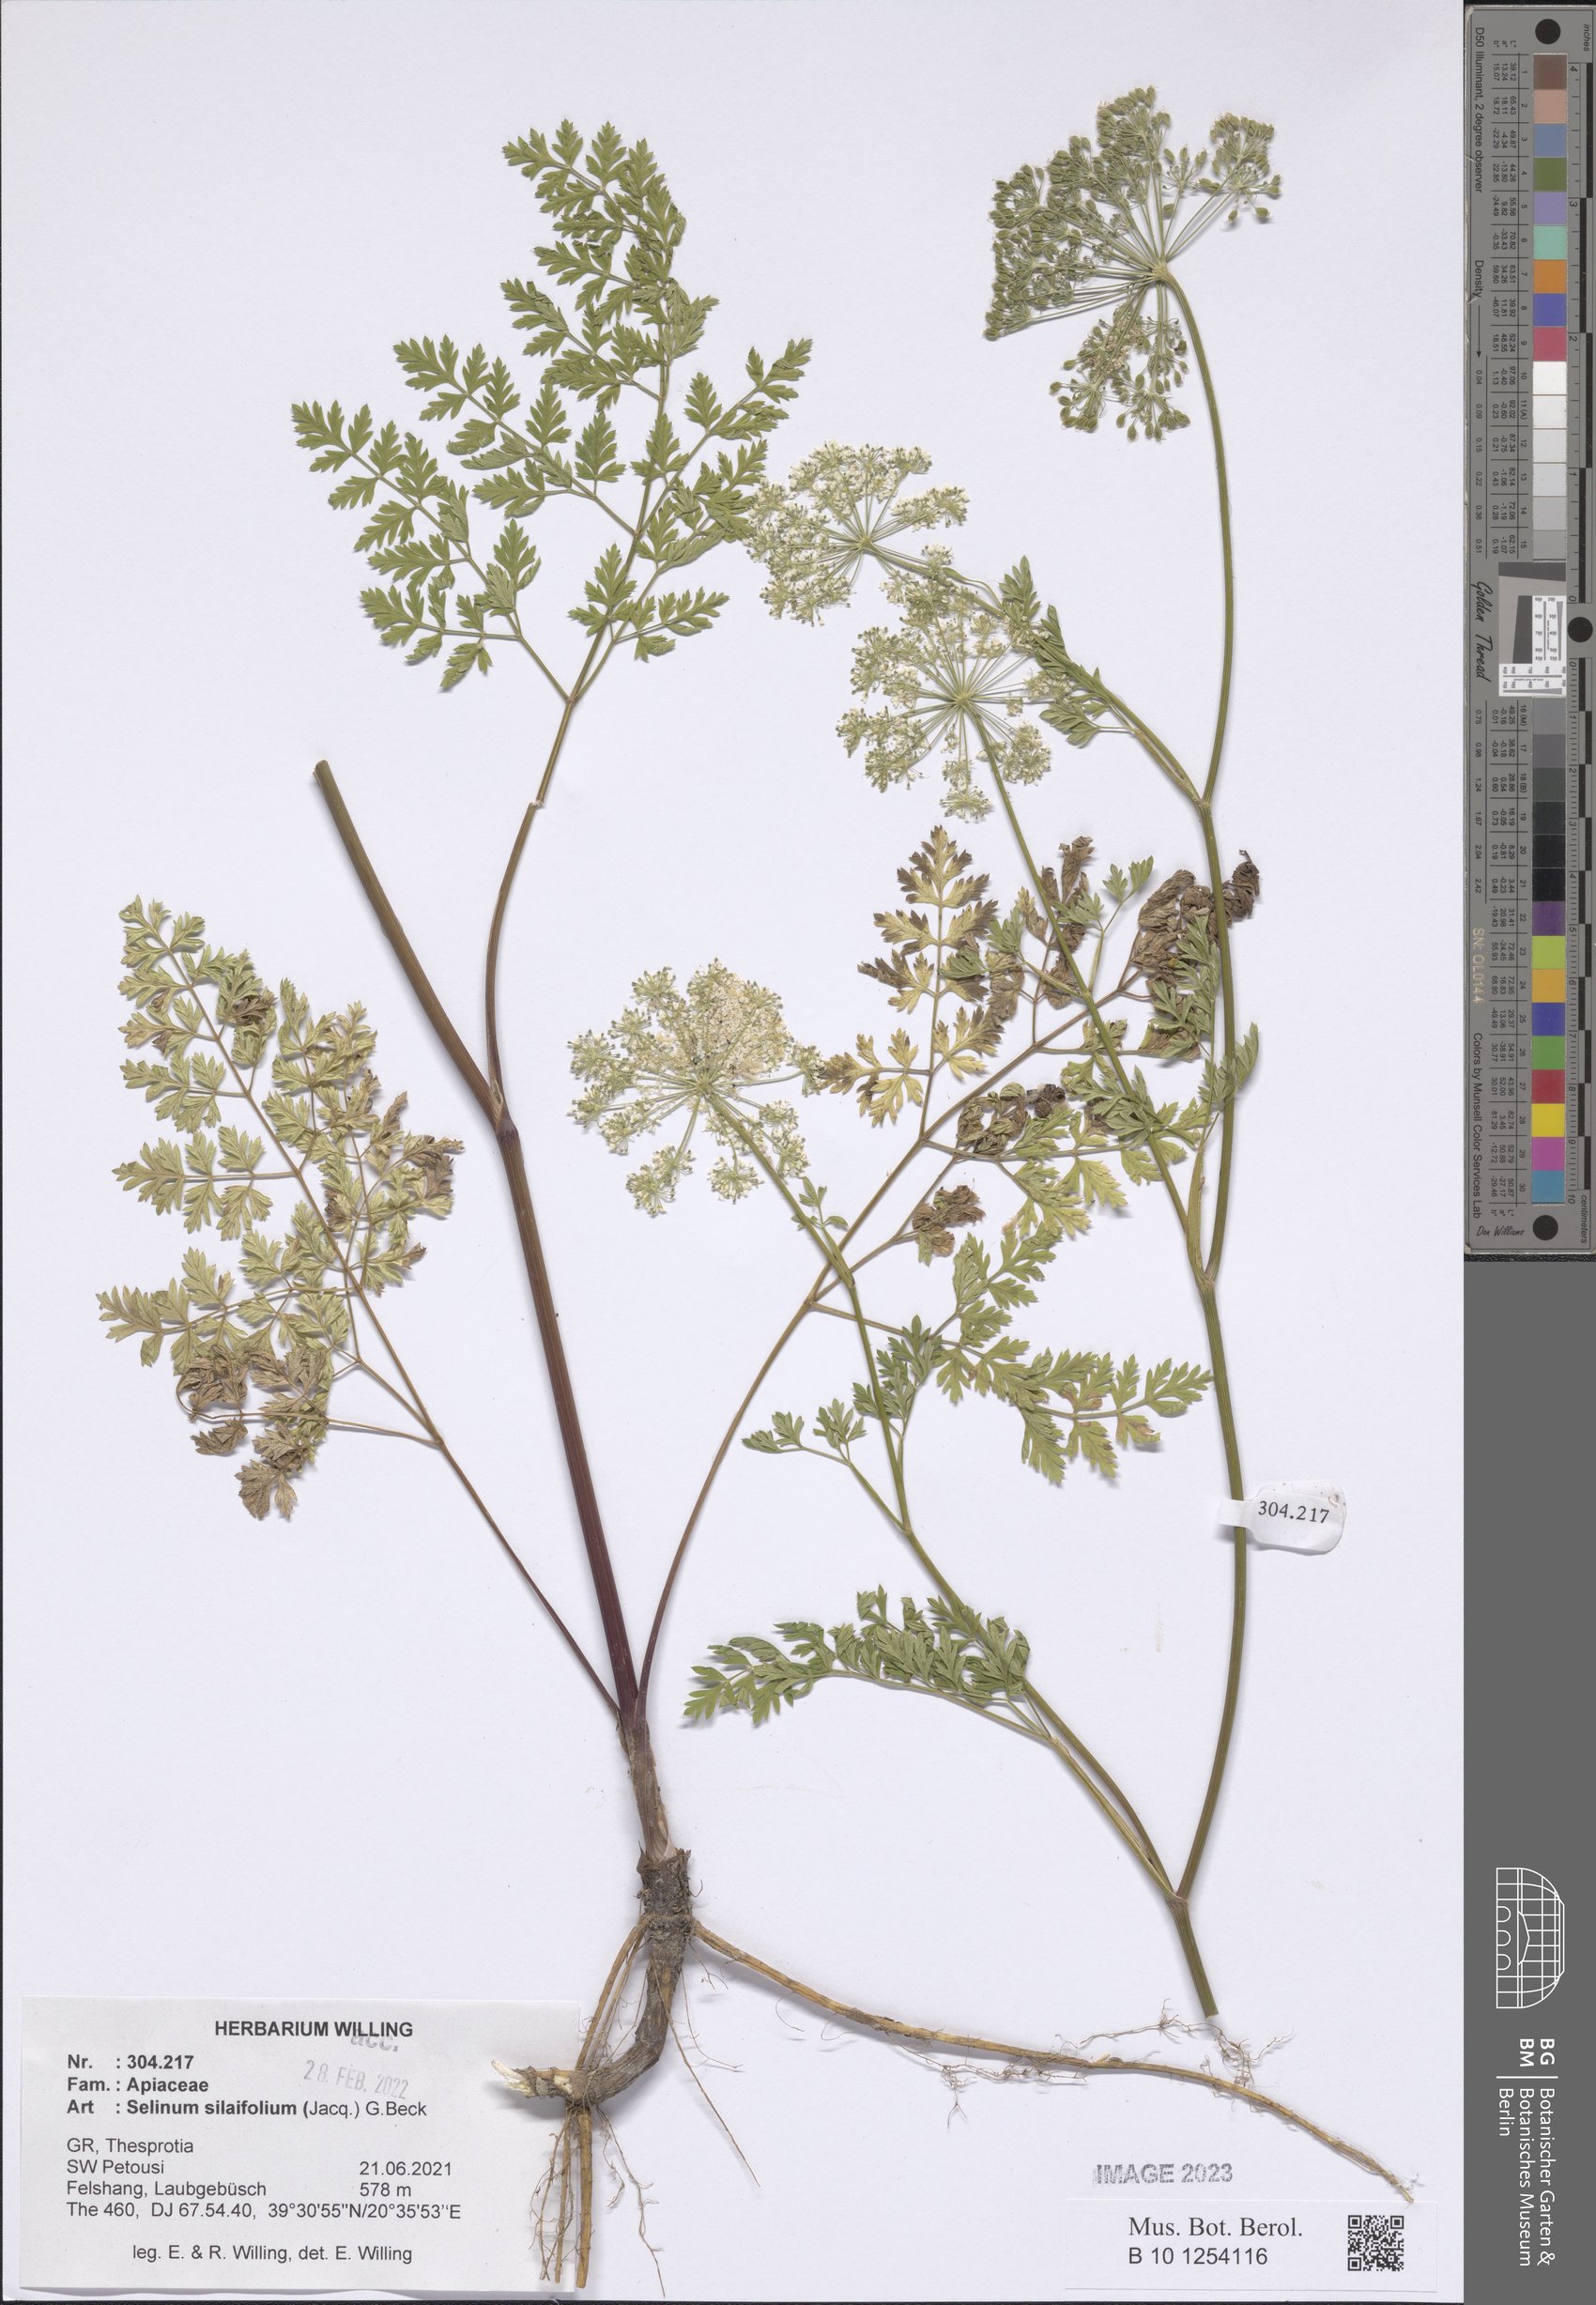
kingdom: Plantae
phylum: Tracheophyta
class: Magnoliopsida
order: Apiales
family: Apiaceae
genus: Katapsuxis
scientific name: Katapsuxis silaifolia
